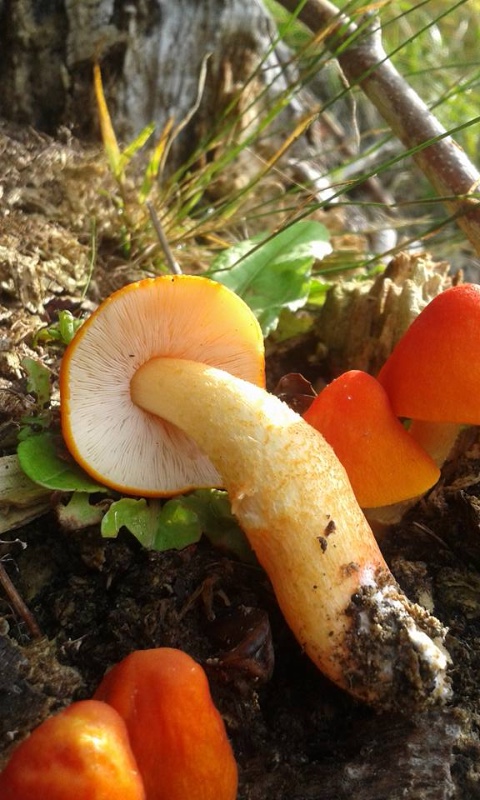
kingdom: Fungi
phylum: Basidiomycota
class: Agaricomycetes
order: Agaricales
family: Pluteaceae
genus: Pluteus
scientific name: Pluteus aurantiorugosus
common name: skarlagen-skærmhat
